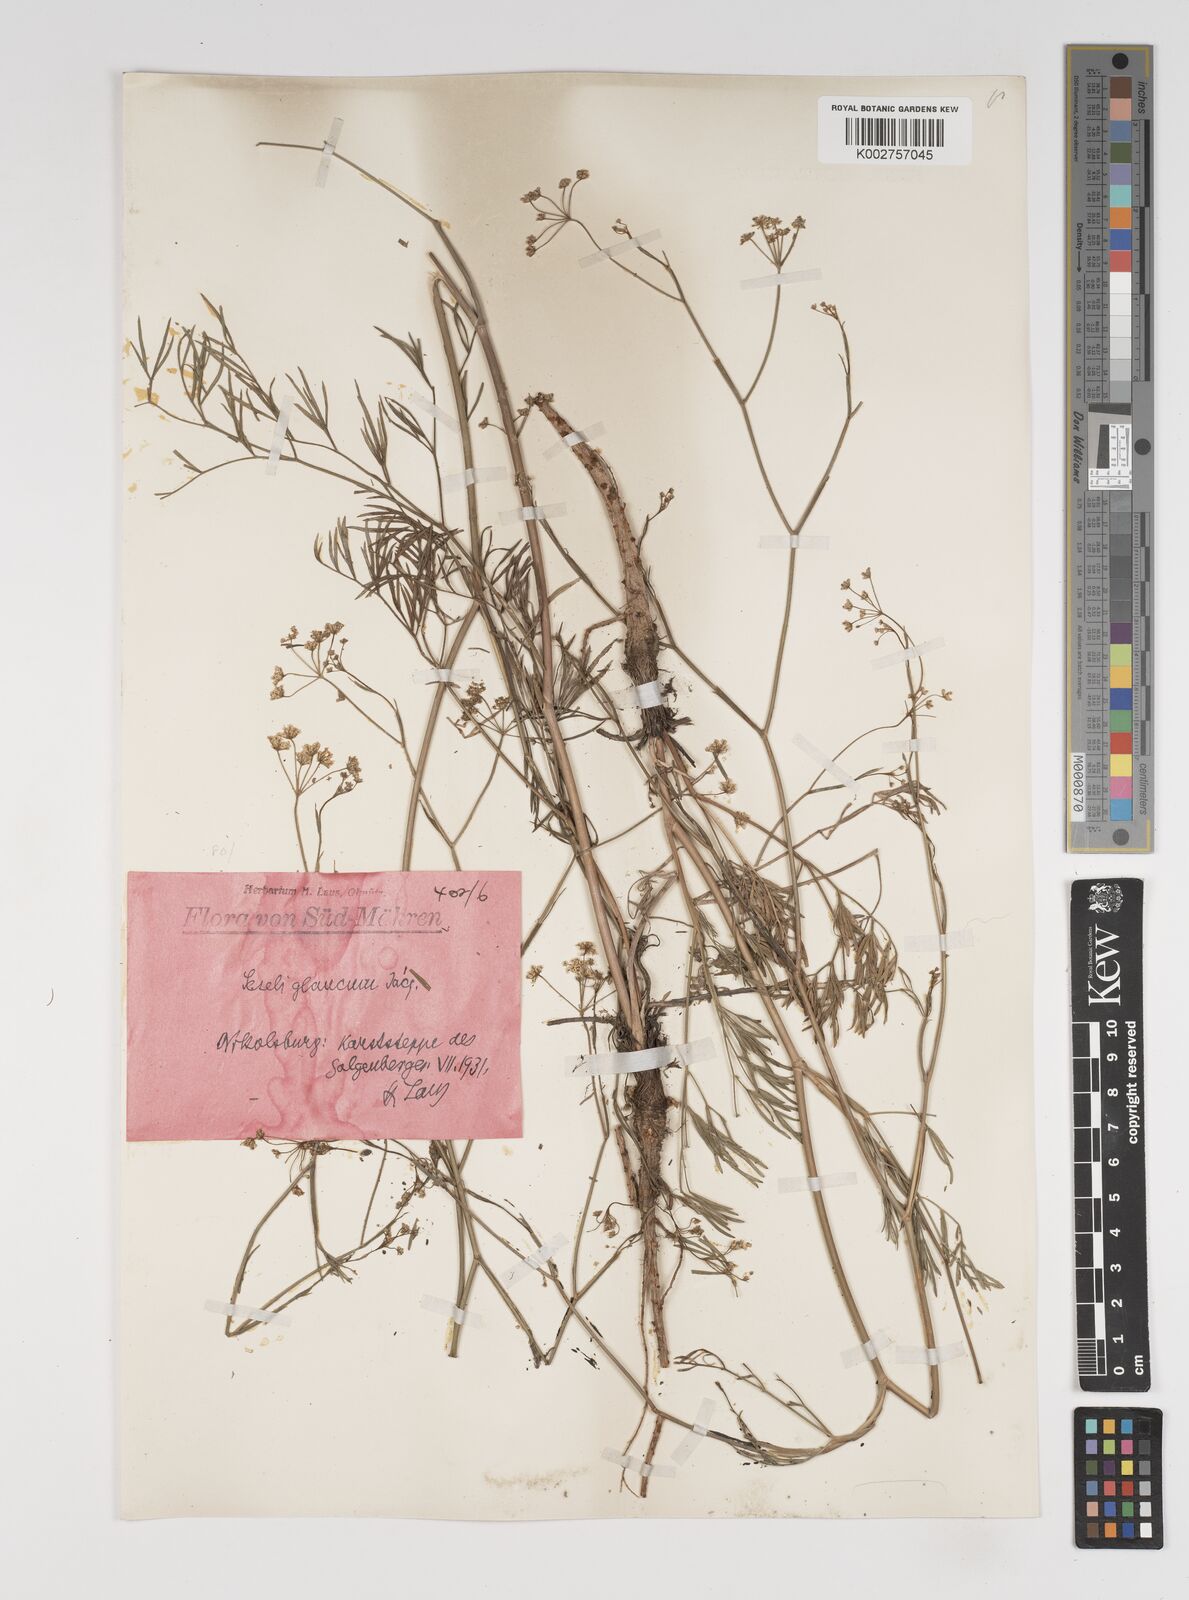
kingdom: Plantae
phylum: Tracheophyta
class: Magnoliopsida
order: Apiales
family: Apiaceae
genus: Seseli
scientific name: Seseli montanum
